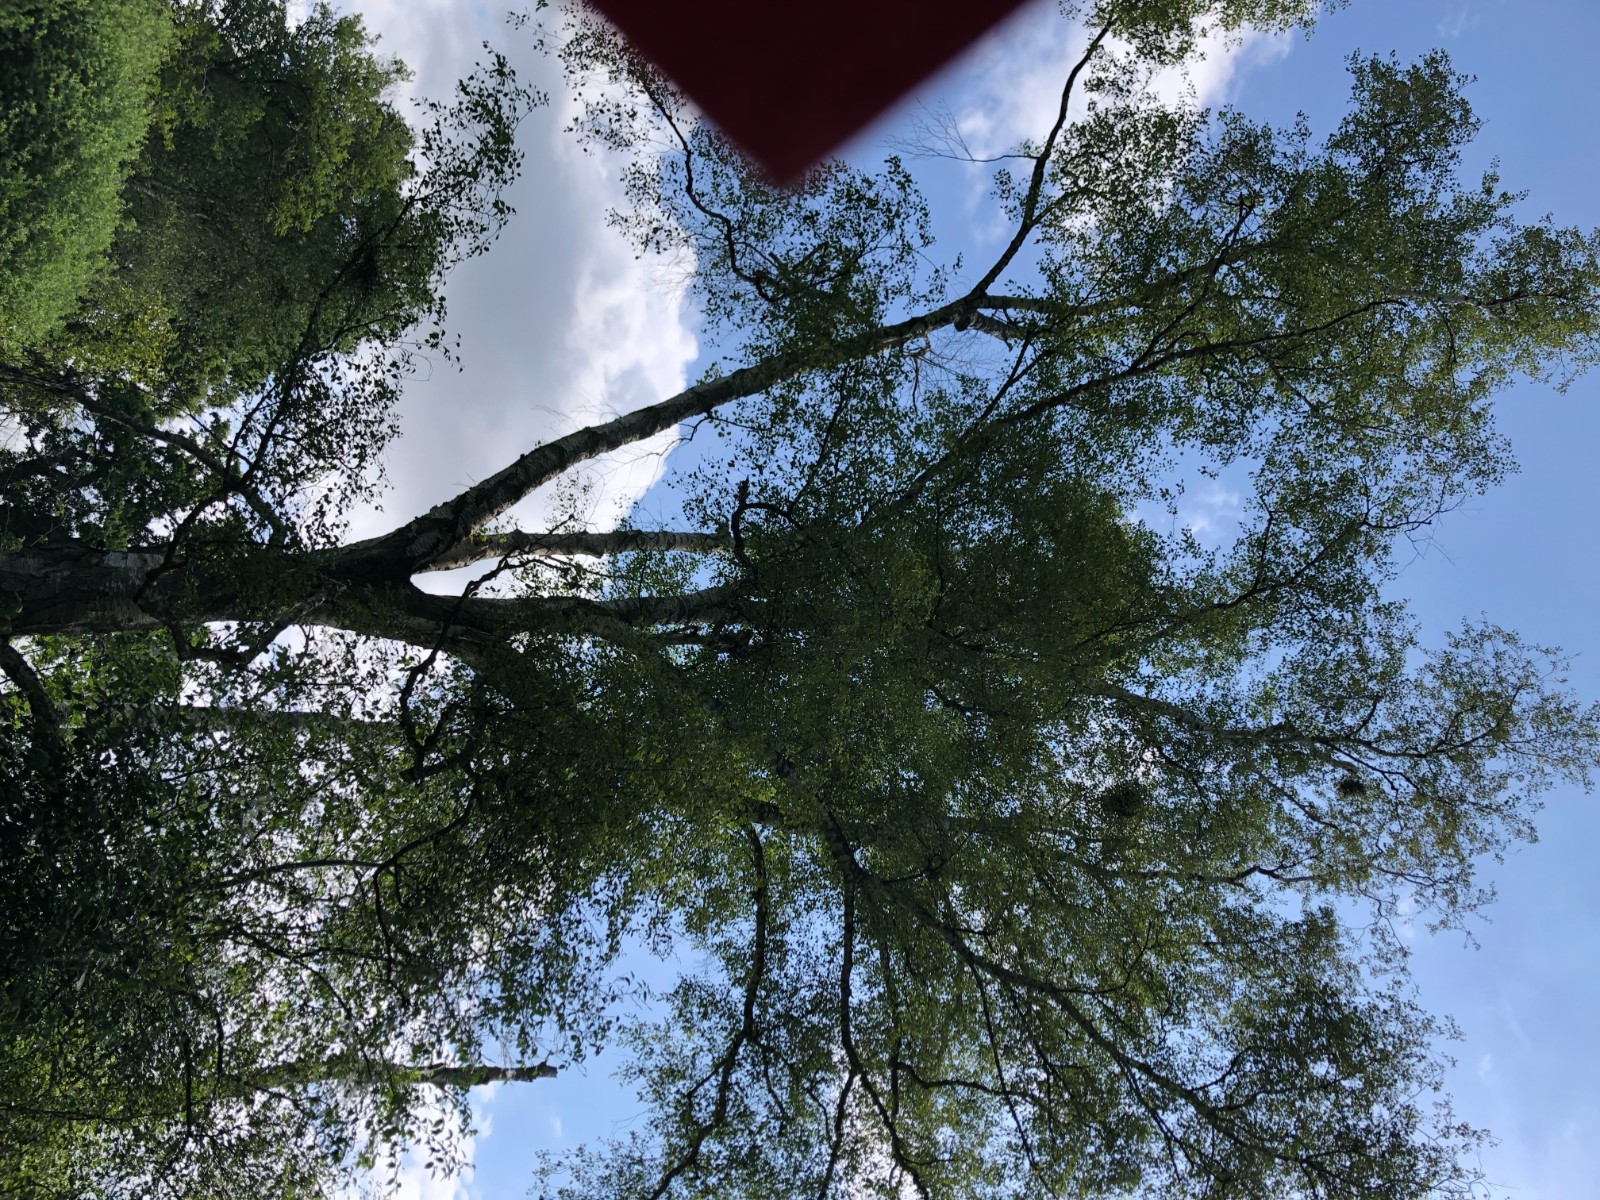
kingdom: Fungi
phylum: Ascomycota
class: Taphrinomycetes
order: Taphrinales
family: Taphrinaceae
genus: Taphrina
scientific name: Taphrina betulina
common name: hekse-sækdug
